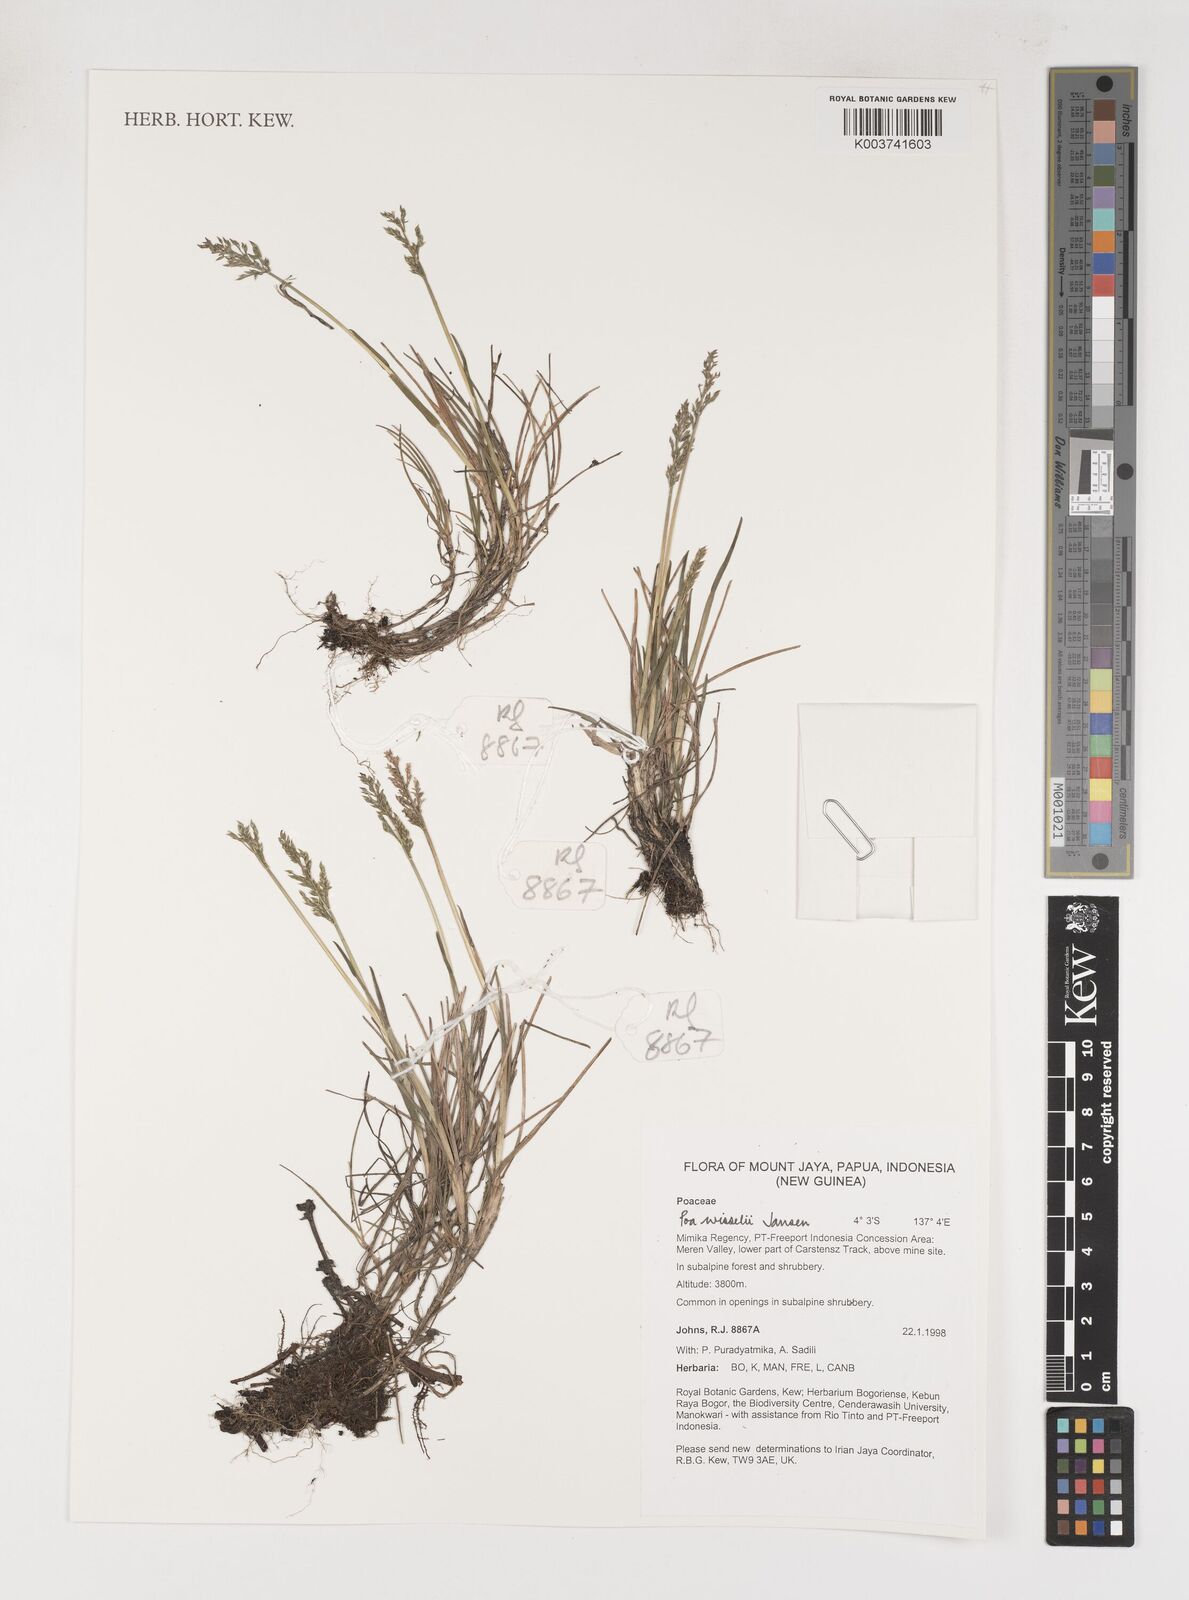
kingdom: Plantae
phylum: Tracheophyta
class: Liliopsida
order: Poales
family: Poaceae
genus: Poa
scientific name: Poa wisselii
